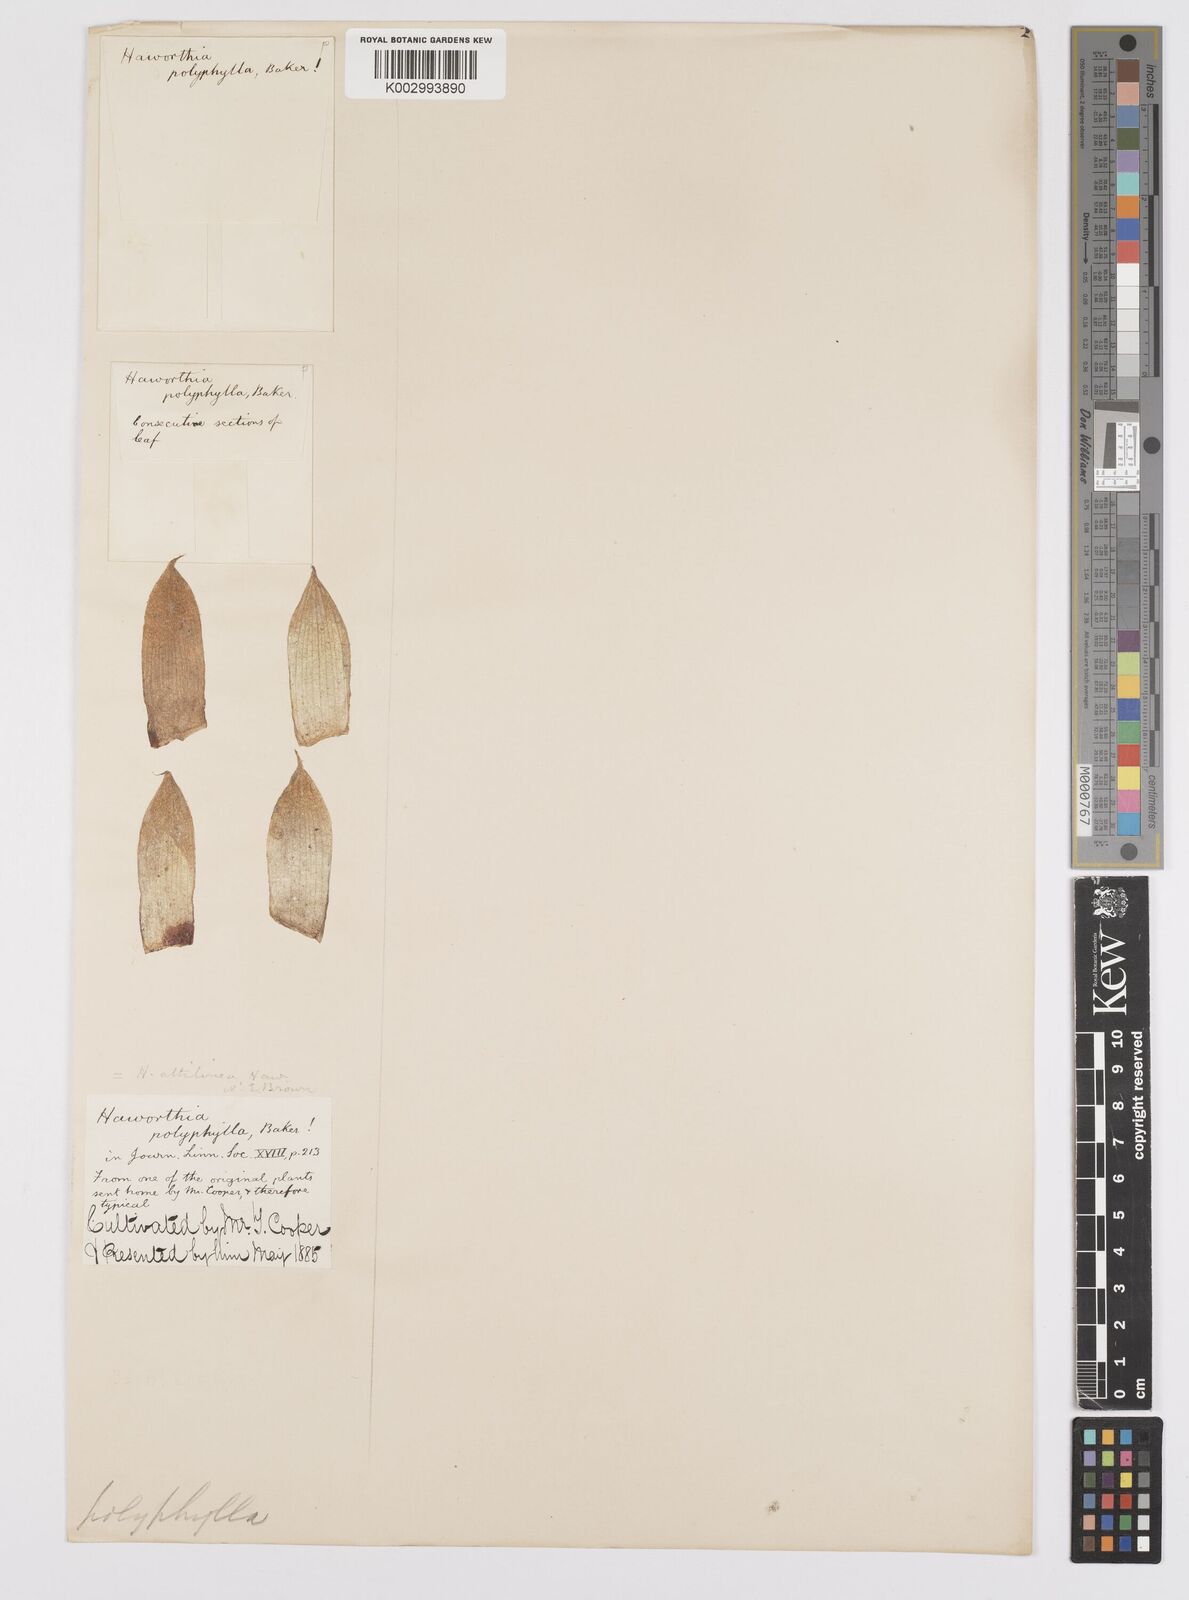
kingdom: Plantae
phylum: Tracheophyta
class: Liliopsida
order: Asparagales
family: Asphodelaceae
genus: Haworthia
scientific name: Haworthia mucronata
